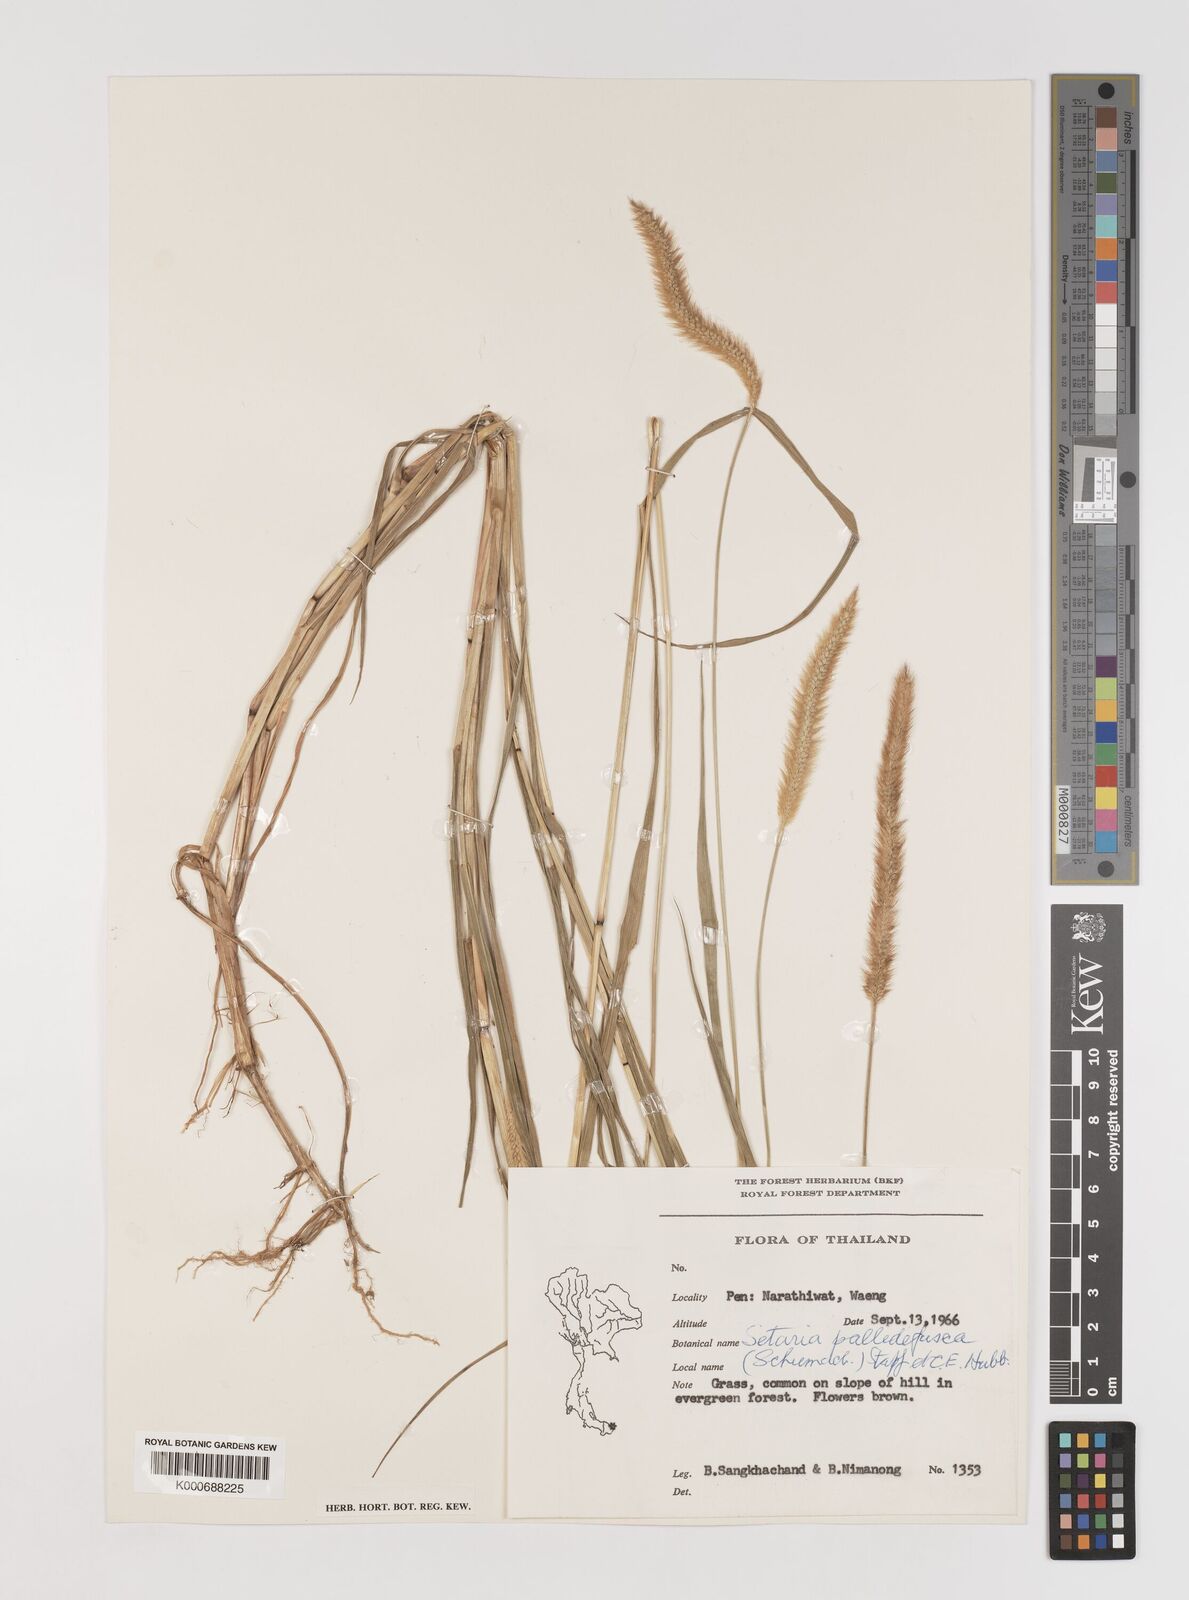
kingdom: Plantae
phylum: Tracheophyta
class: Liliopsida
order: Poales
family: Poaceae
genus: Setaria
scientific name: Setaria pumila
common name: Yellow bristle-grass
